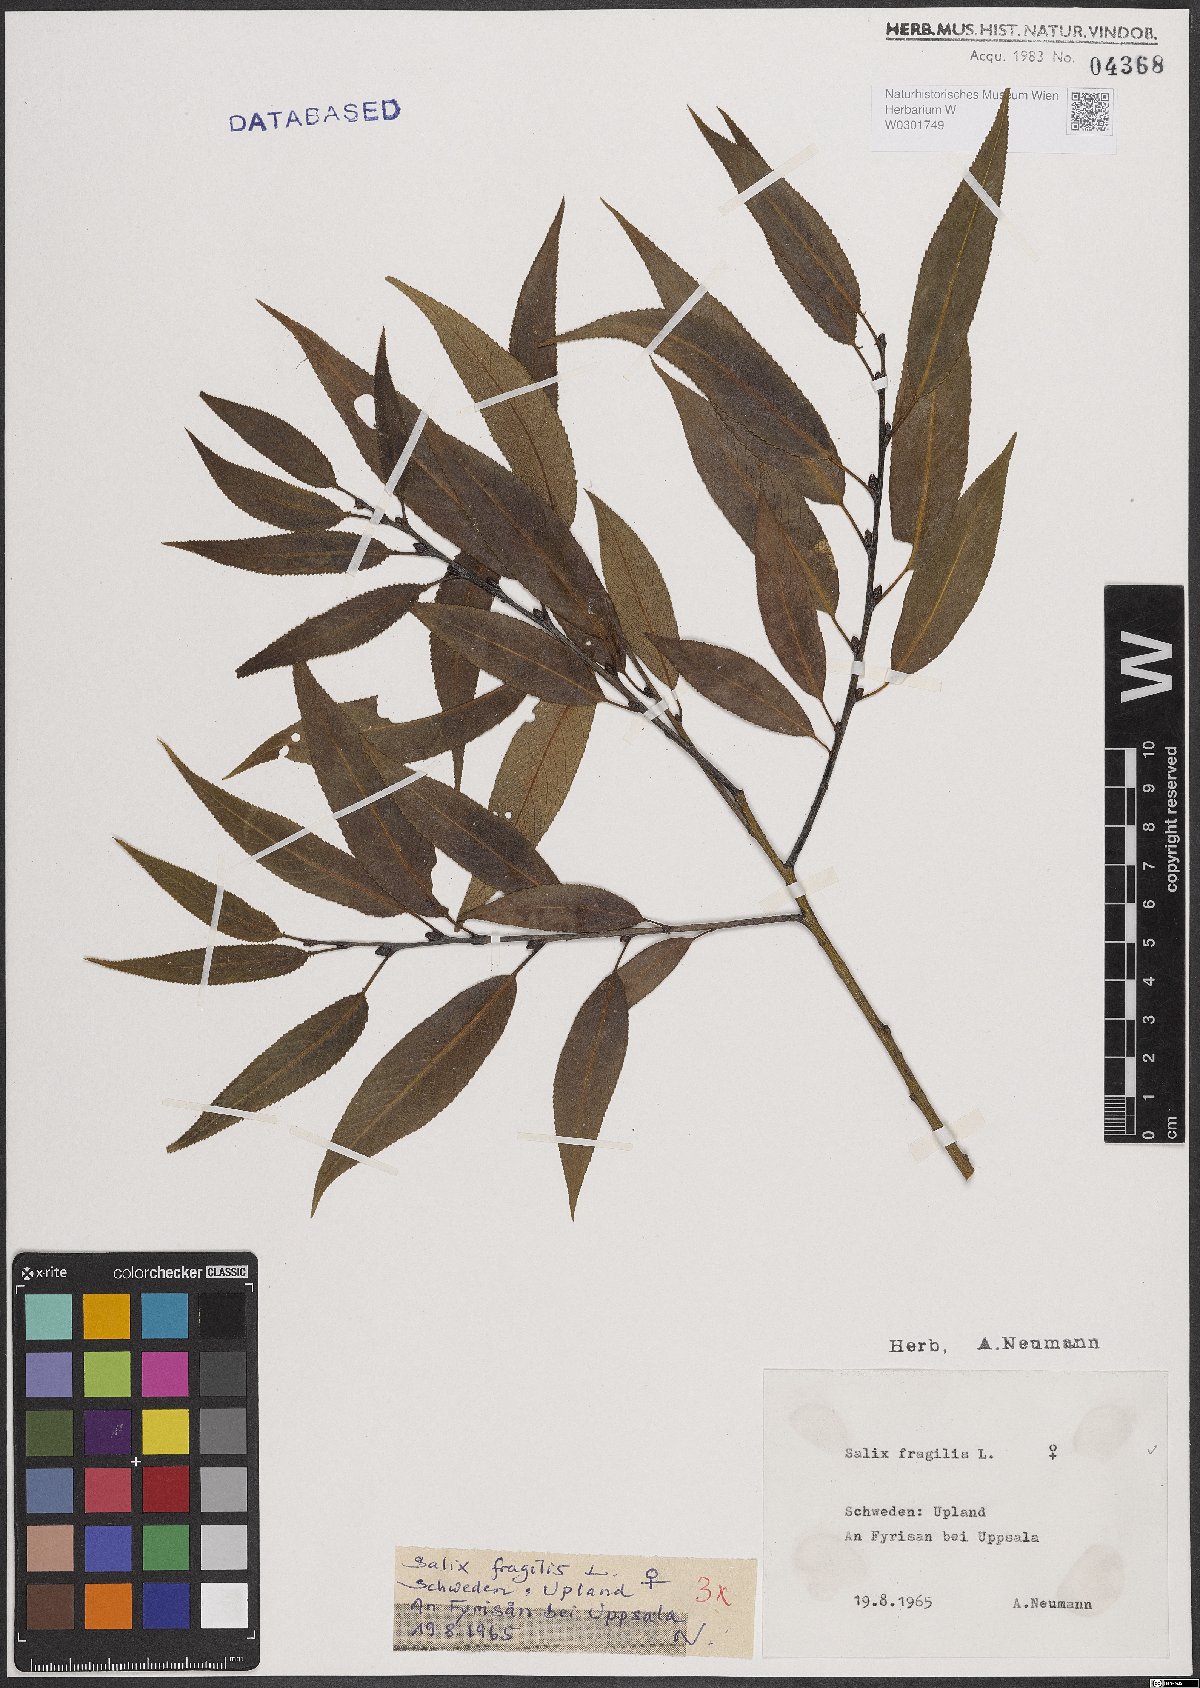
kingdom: Plantae
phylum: Tracheophyta
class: Magnoliopsida
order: Malpighiales
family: Salicaceae
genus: Salix
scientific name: Salix fragilis
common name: Crack willow
